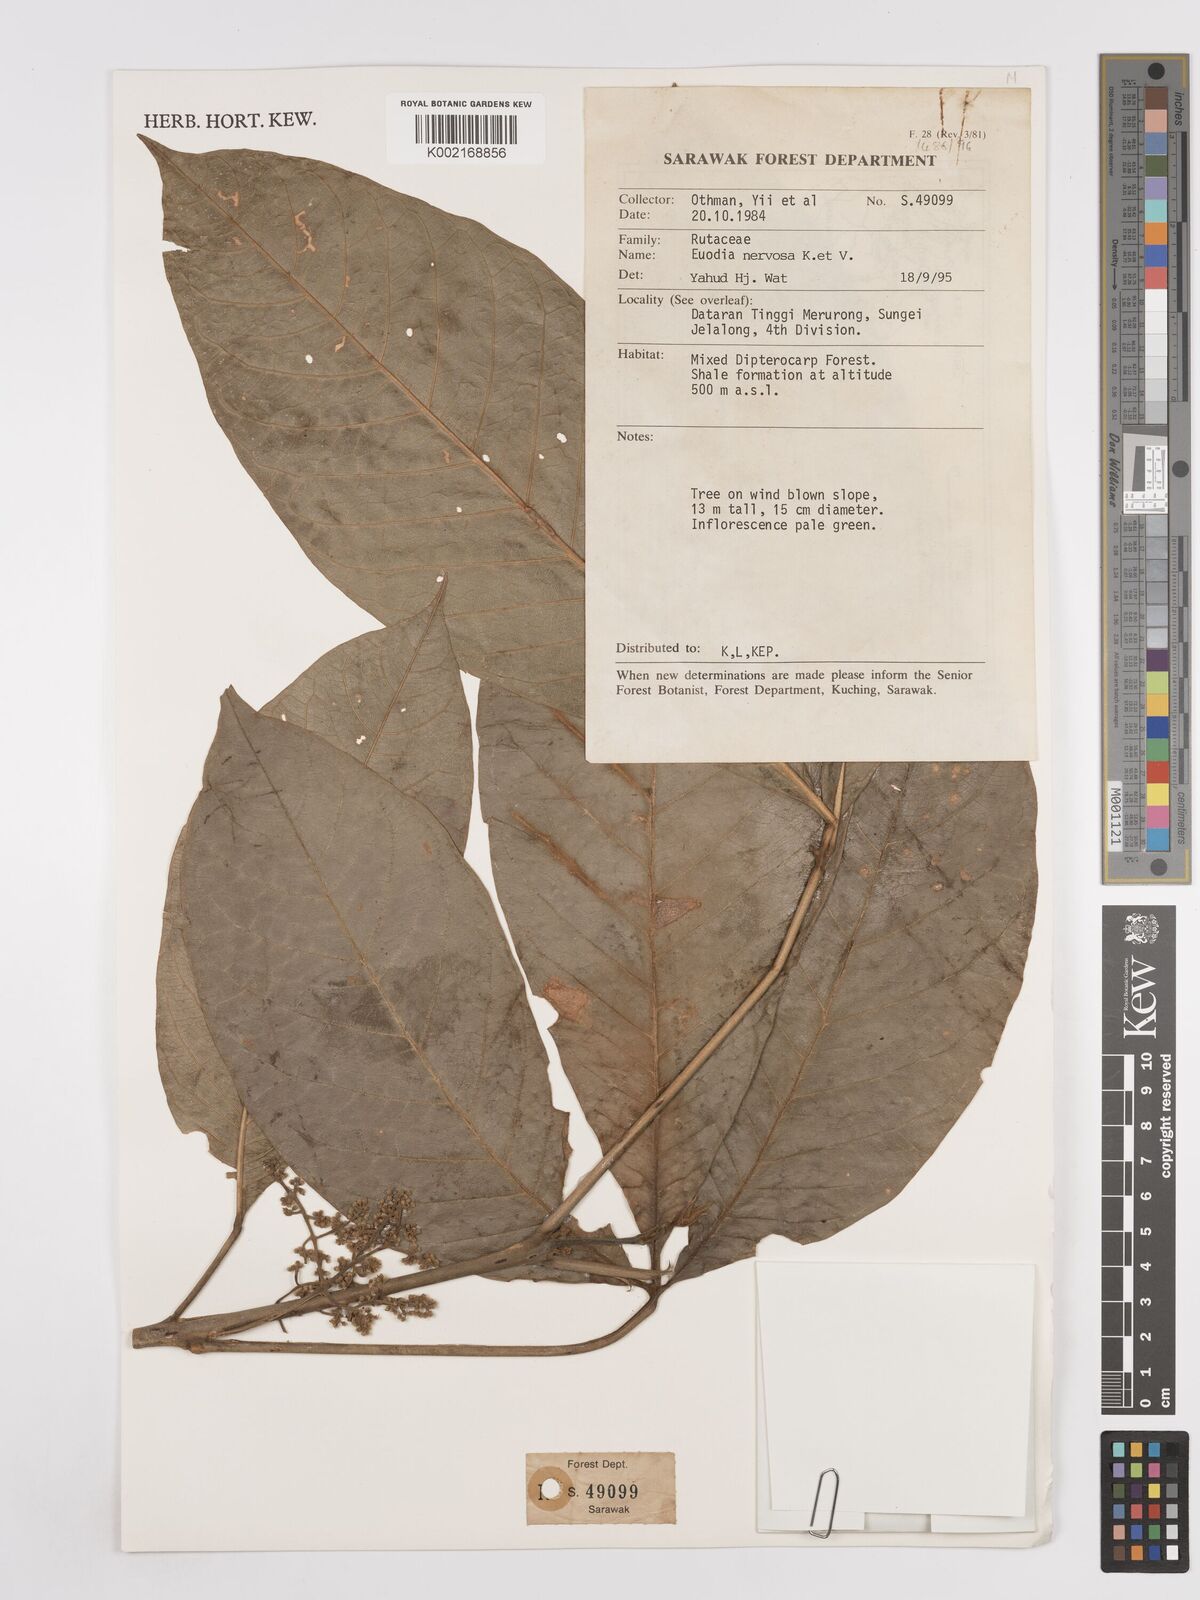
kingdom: Plantae
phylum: Tracheophyta
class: Magnoliopsida
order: Sapindales
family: Rutaceae
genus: Melicope
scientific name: Melicope accedens
